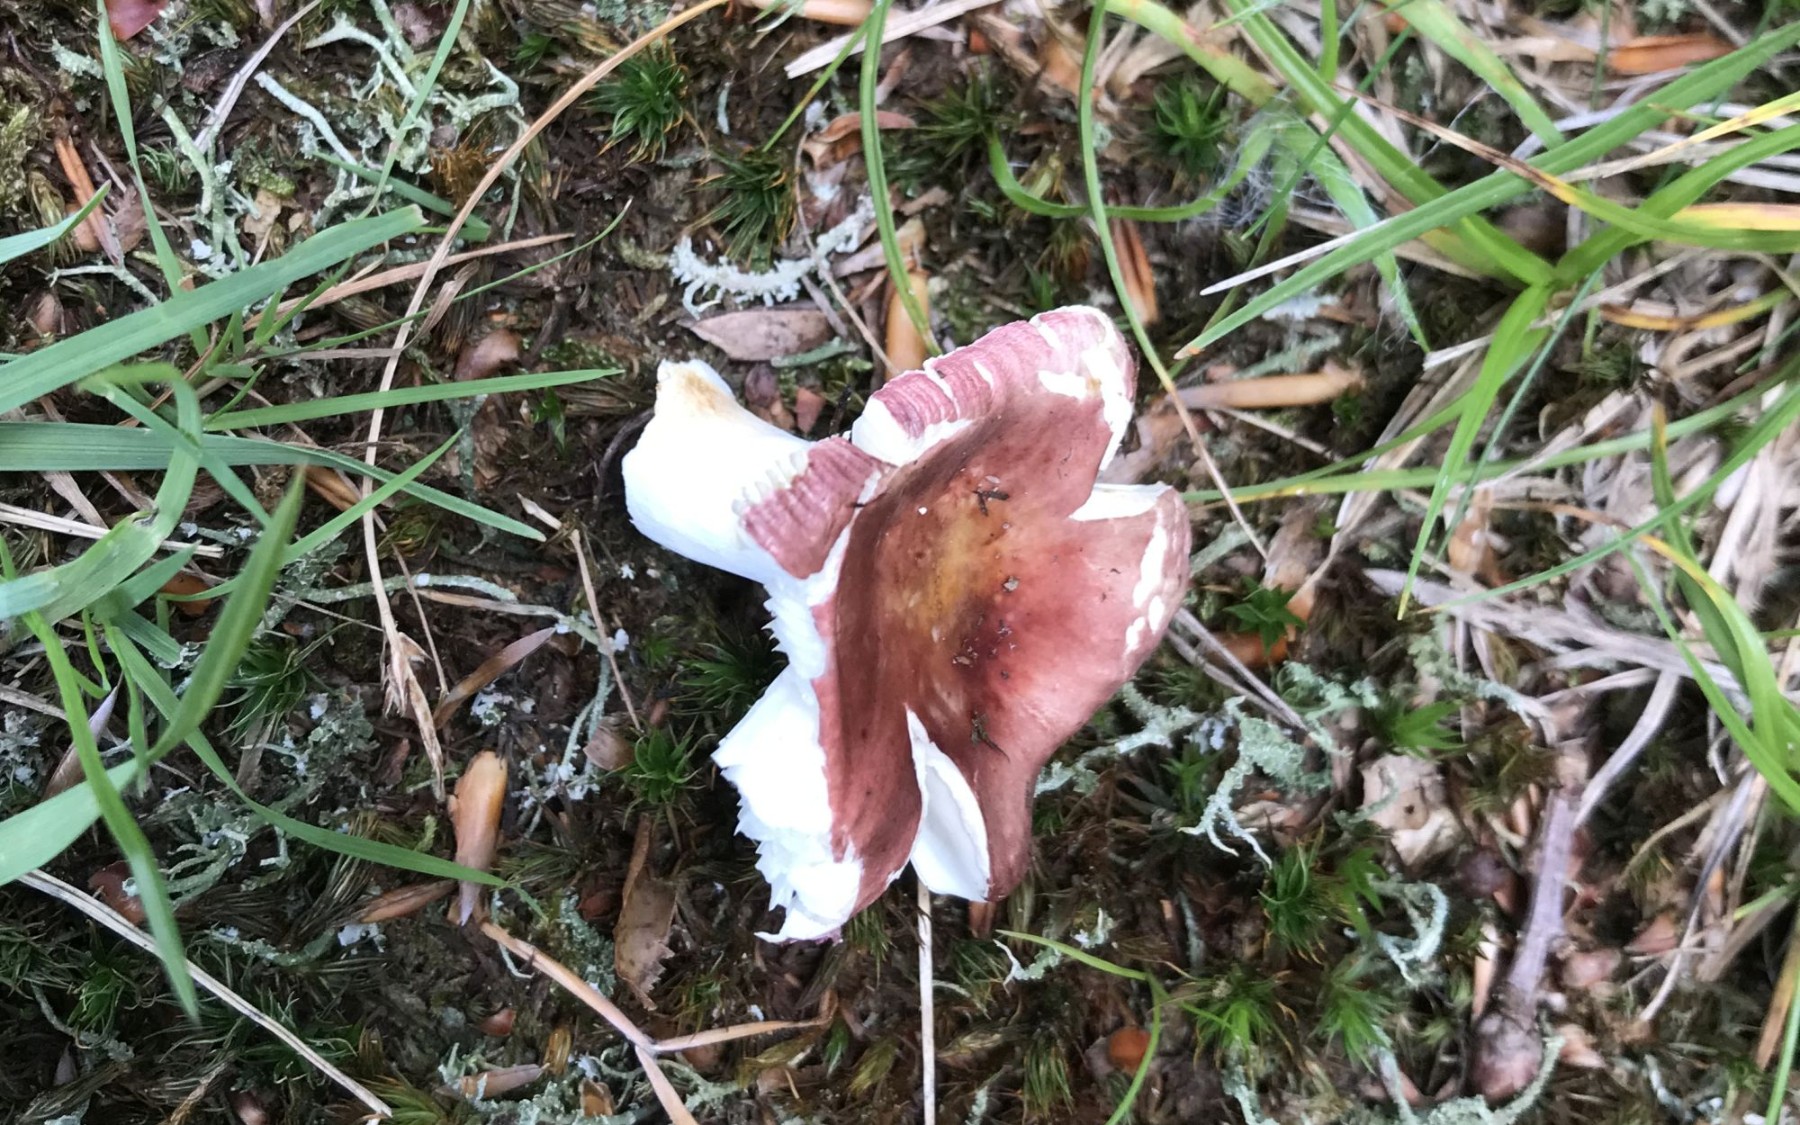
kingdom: Fungi
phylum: Basidiomycota
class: Agaricomycetes
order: Russulales
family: Russulaceae
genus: Russula
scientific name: Russula vesca
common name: spiselig skørhat
